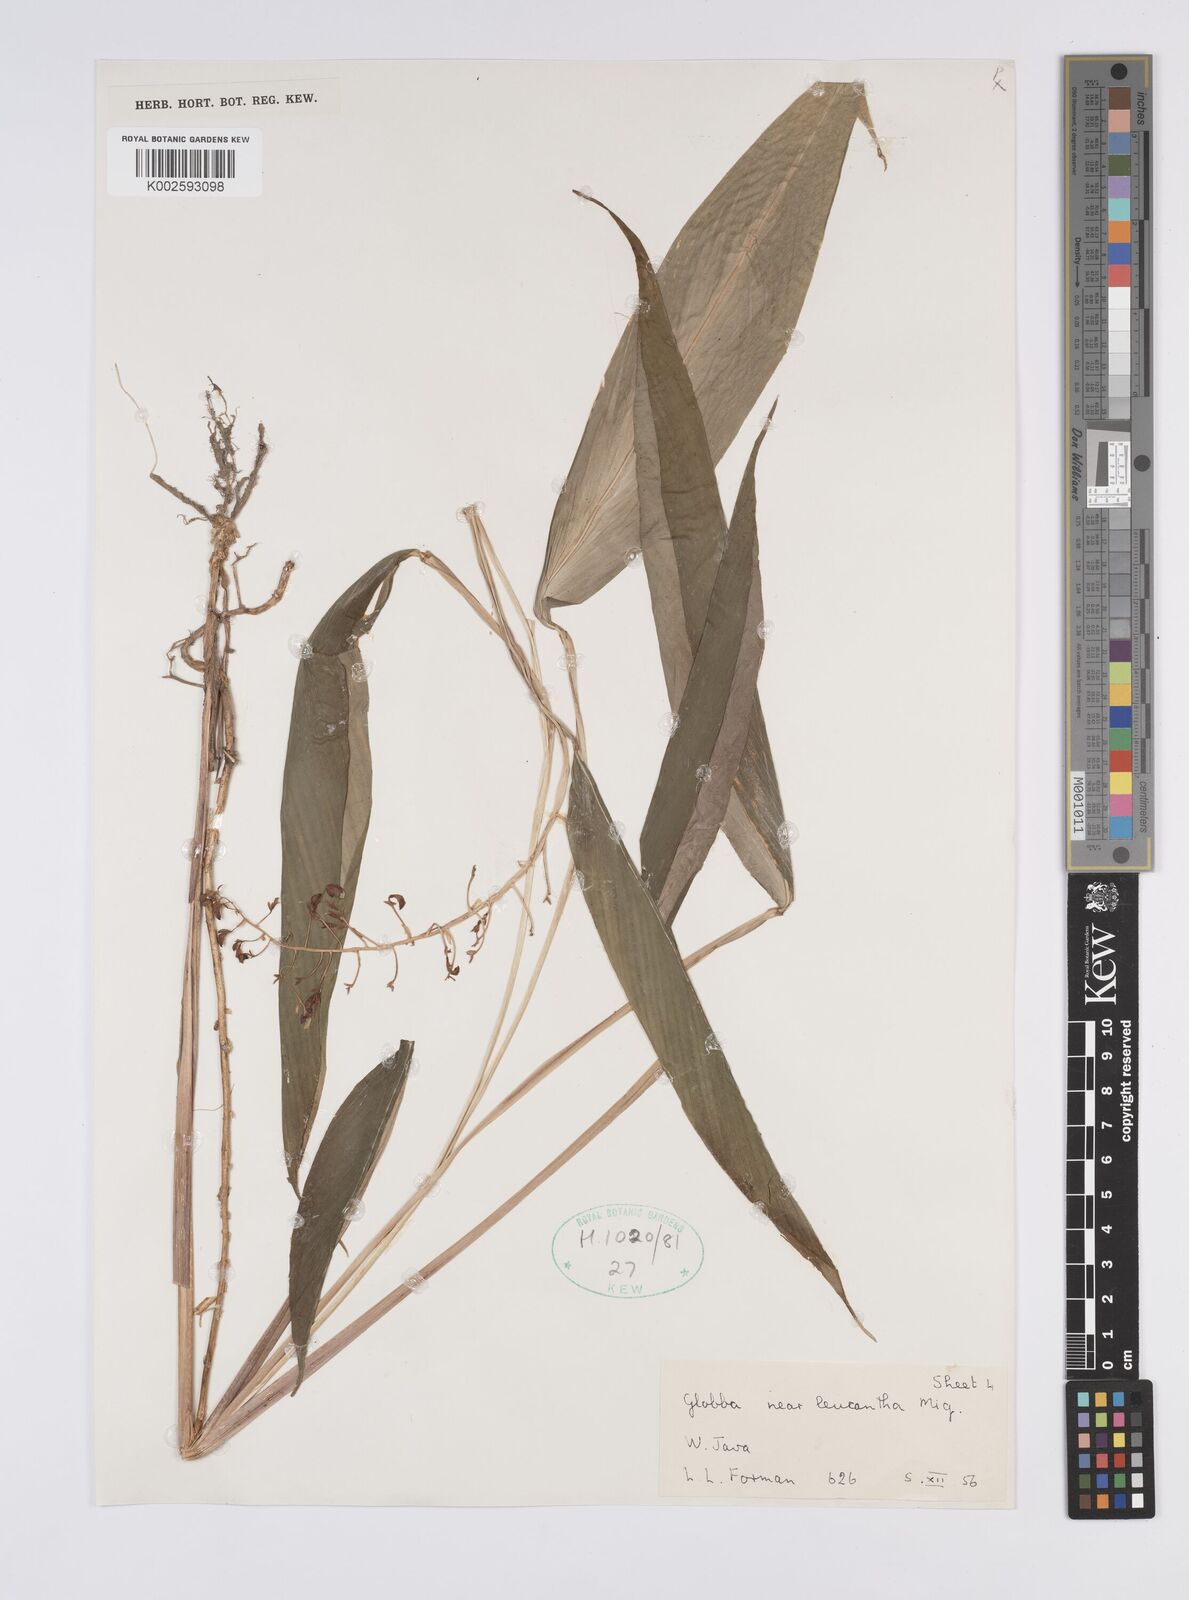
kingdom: Plantae
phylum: Tracheophyta
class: Liliopsida
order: Zingiberales
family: Zingiberaceae
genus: Globba
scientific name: Globba leucantha
